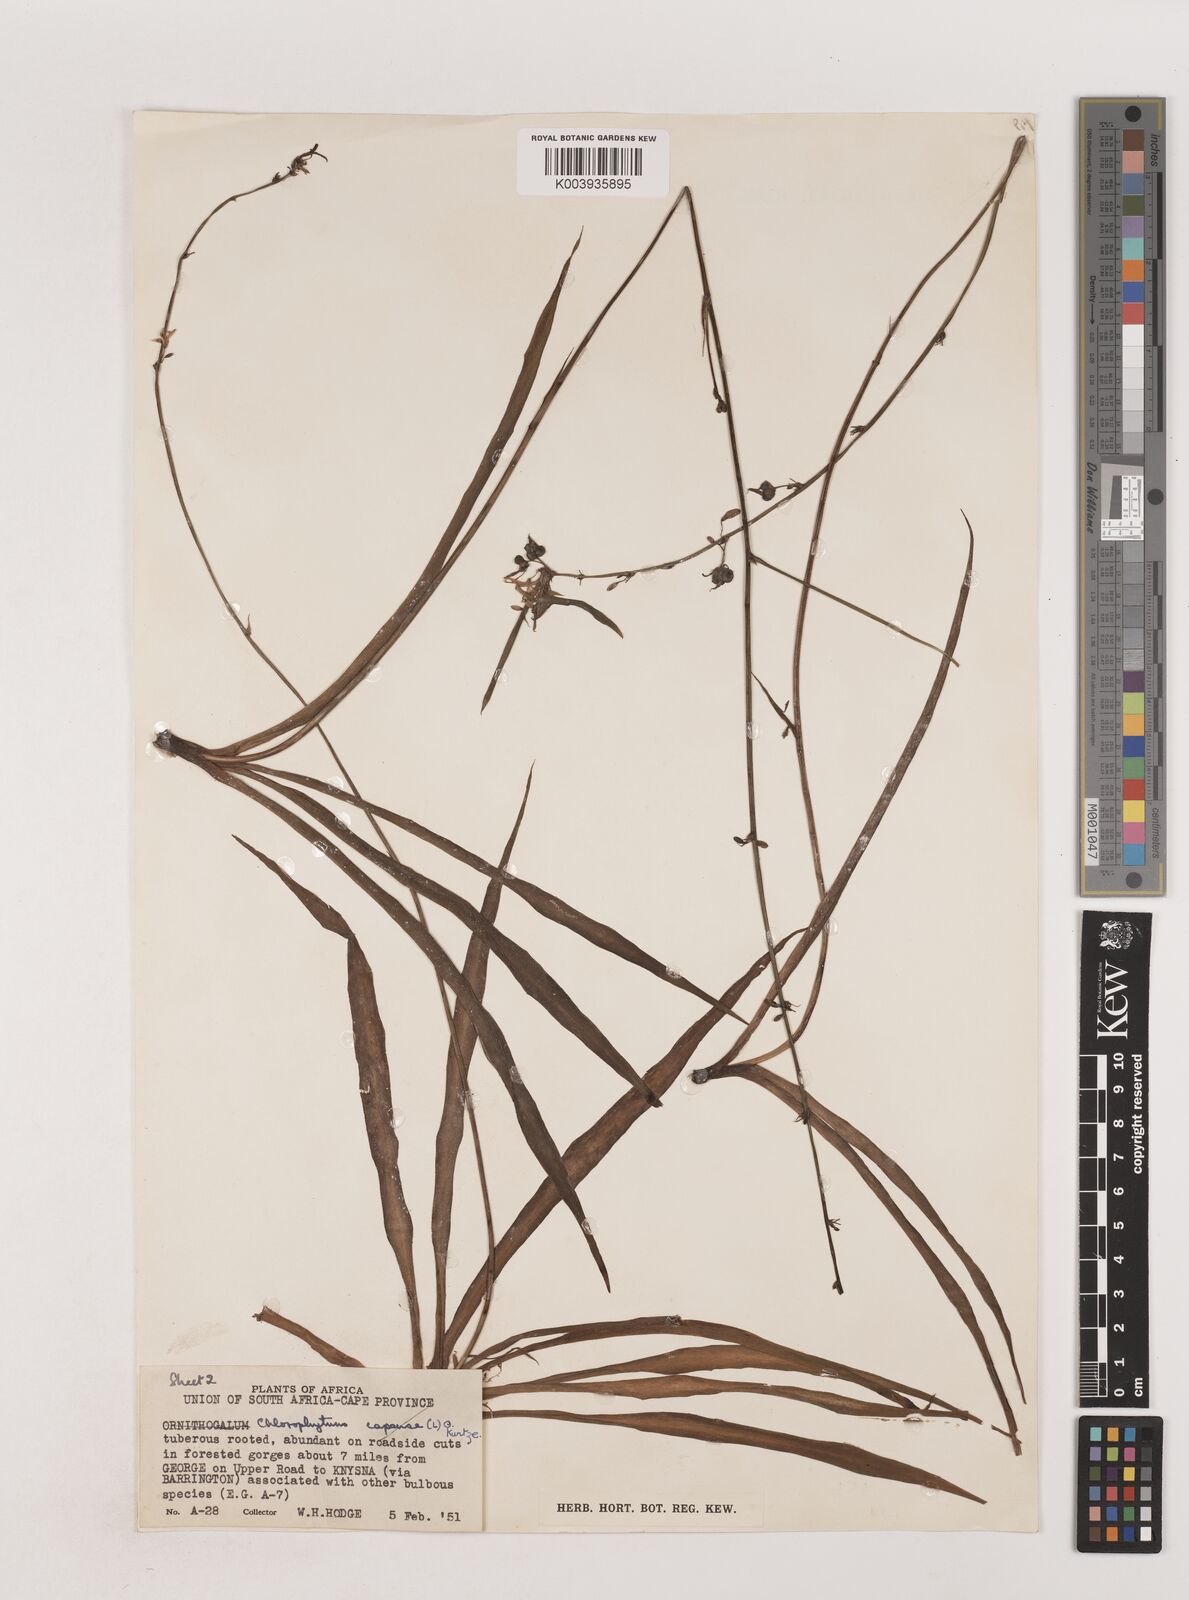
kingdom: Plantae
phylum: Tracheophyta
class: Liliopsida
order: Asparagales
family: Asparagaceae
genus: Chlorophytum
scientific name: Chlorophytum comosum
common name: Spider plant
